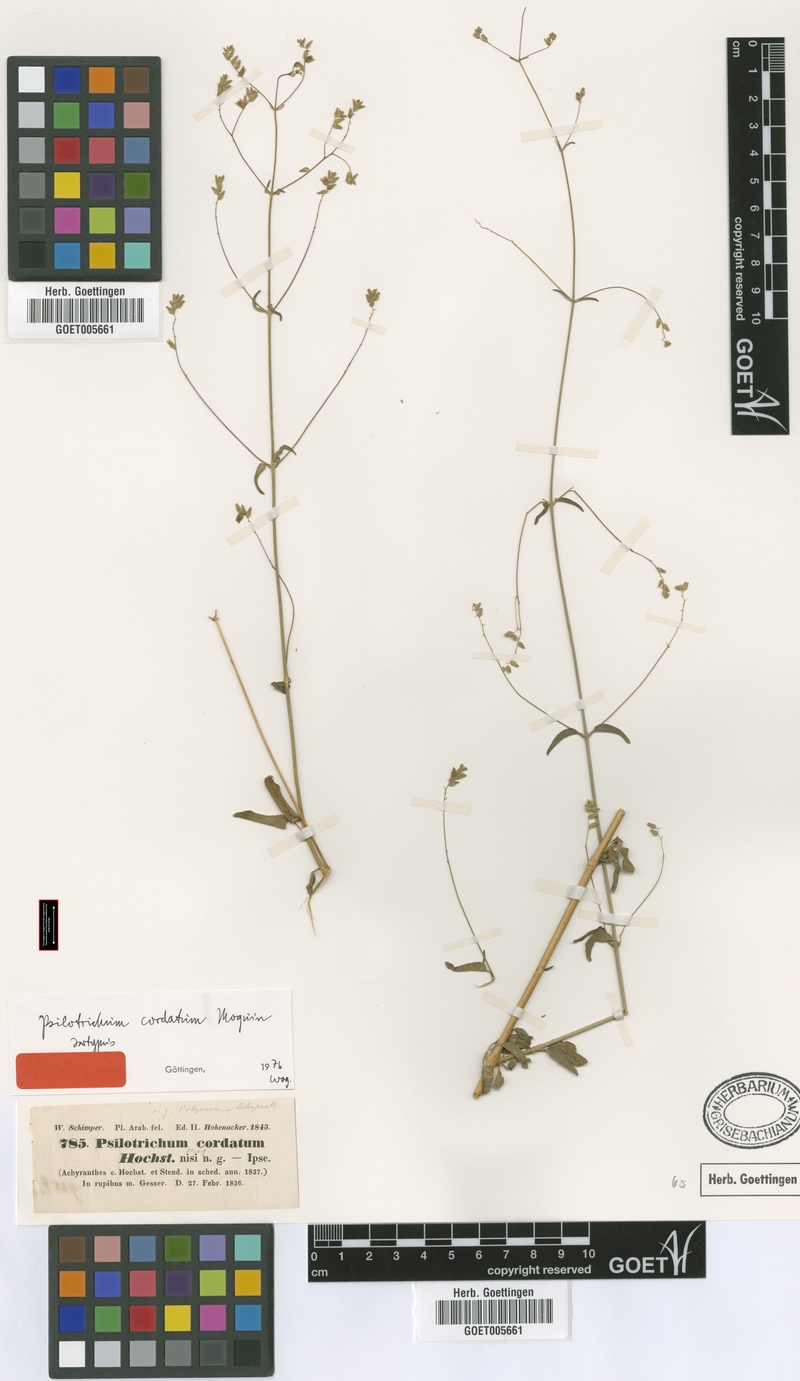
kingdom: Plantae
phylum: Tracheophyta
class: Magnoliopsida
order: Caryophyllales
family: Amaranthaceae
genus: Psilotrichum
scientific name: Psilotrichum gnaphalobryum
